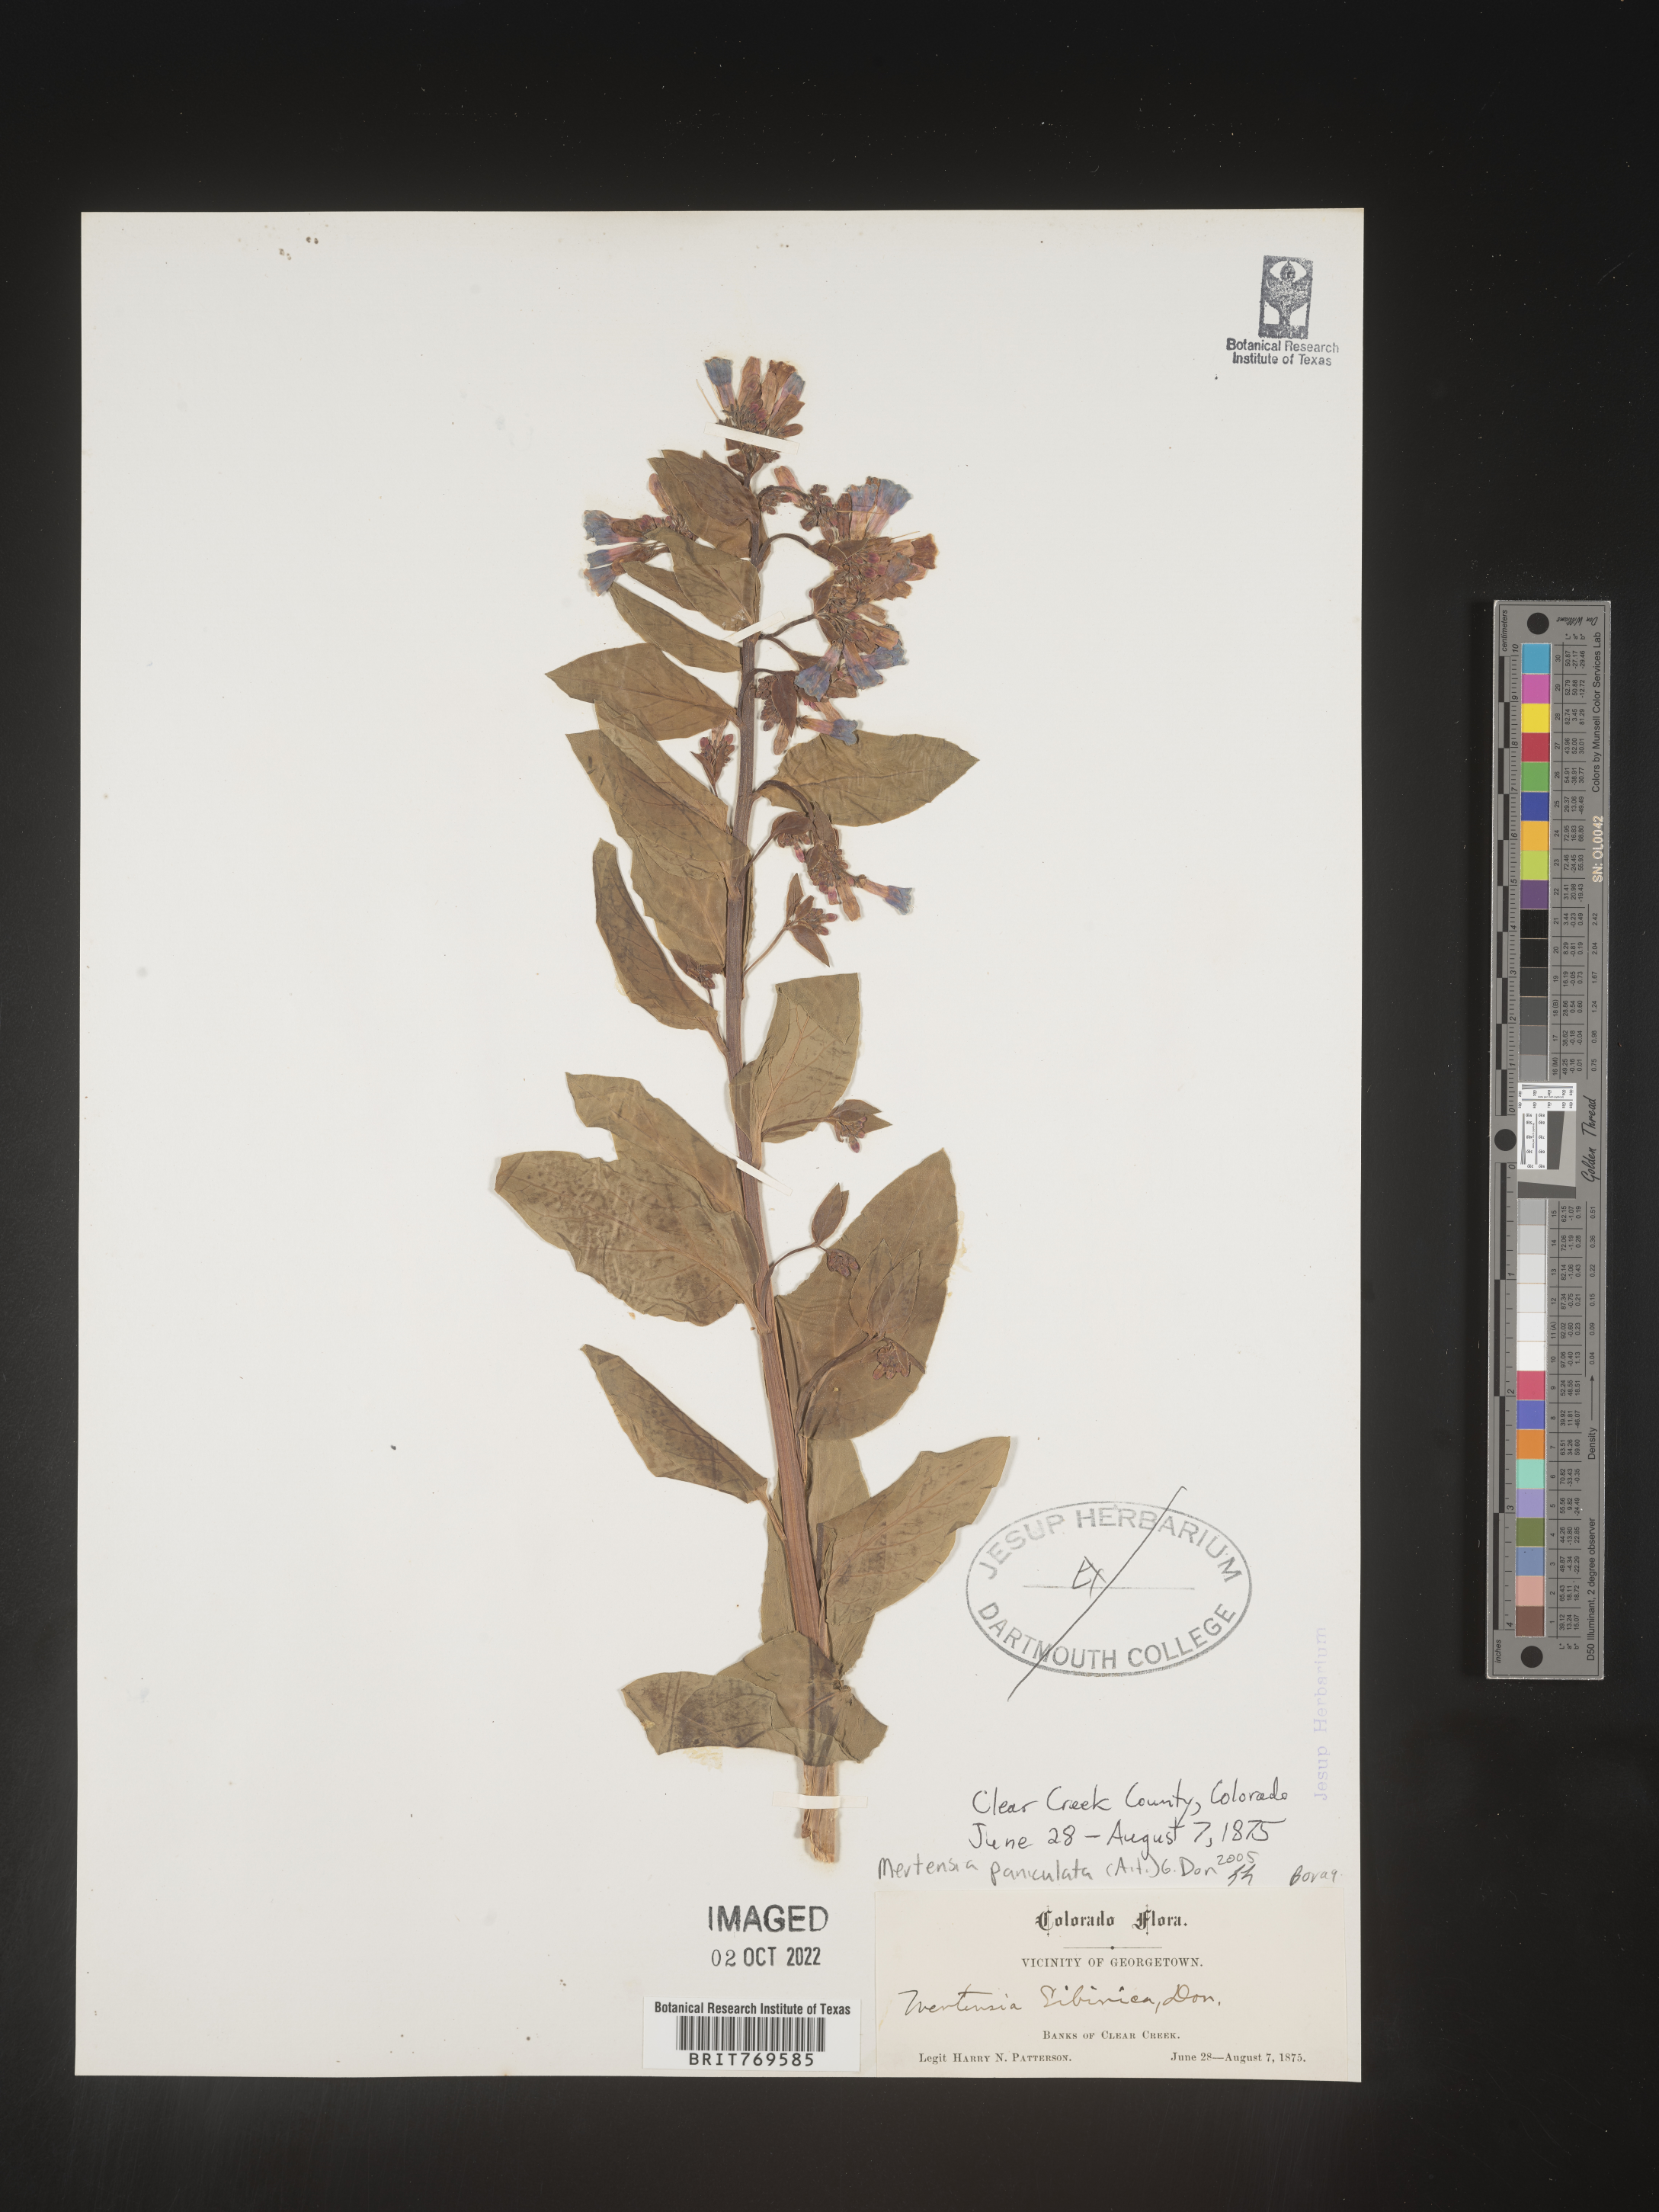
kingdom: Plantae
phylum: Tracheophyta
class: Magnoliopsida
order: Boraginales
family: Boraginaceae
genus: Mertensia
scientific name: Mertensia
